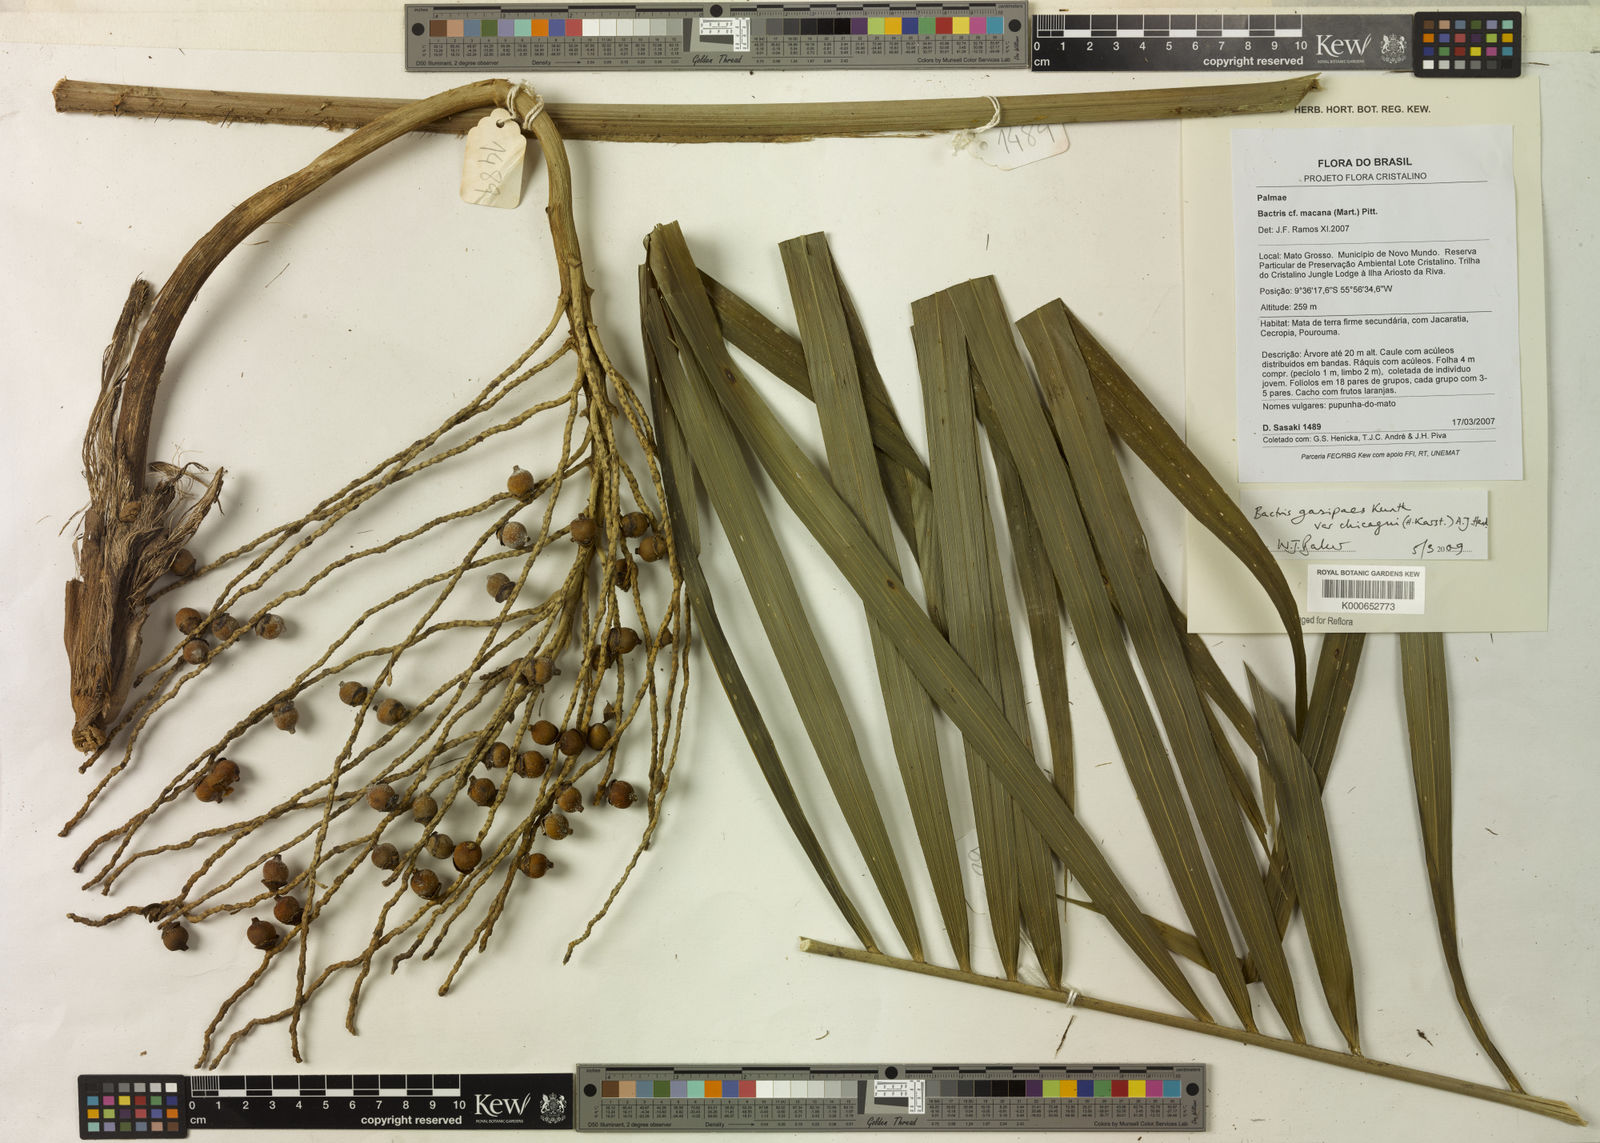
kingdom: Plantae
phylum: Tracheophyta
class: Liliopsida
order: Arecales
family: Arecaceae
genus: Bactris
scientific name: Bactris gasipaes
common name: Peach palm
